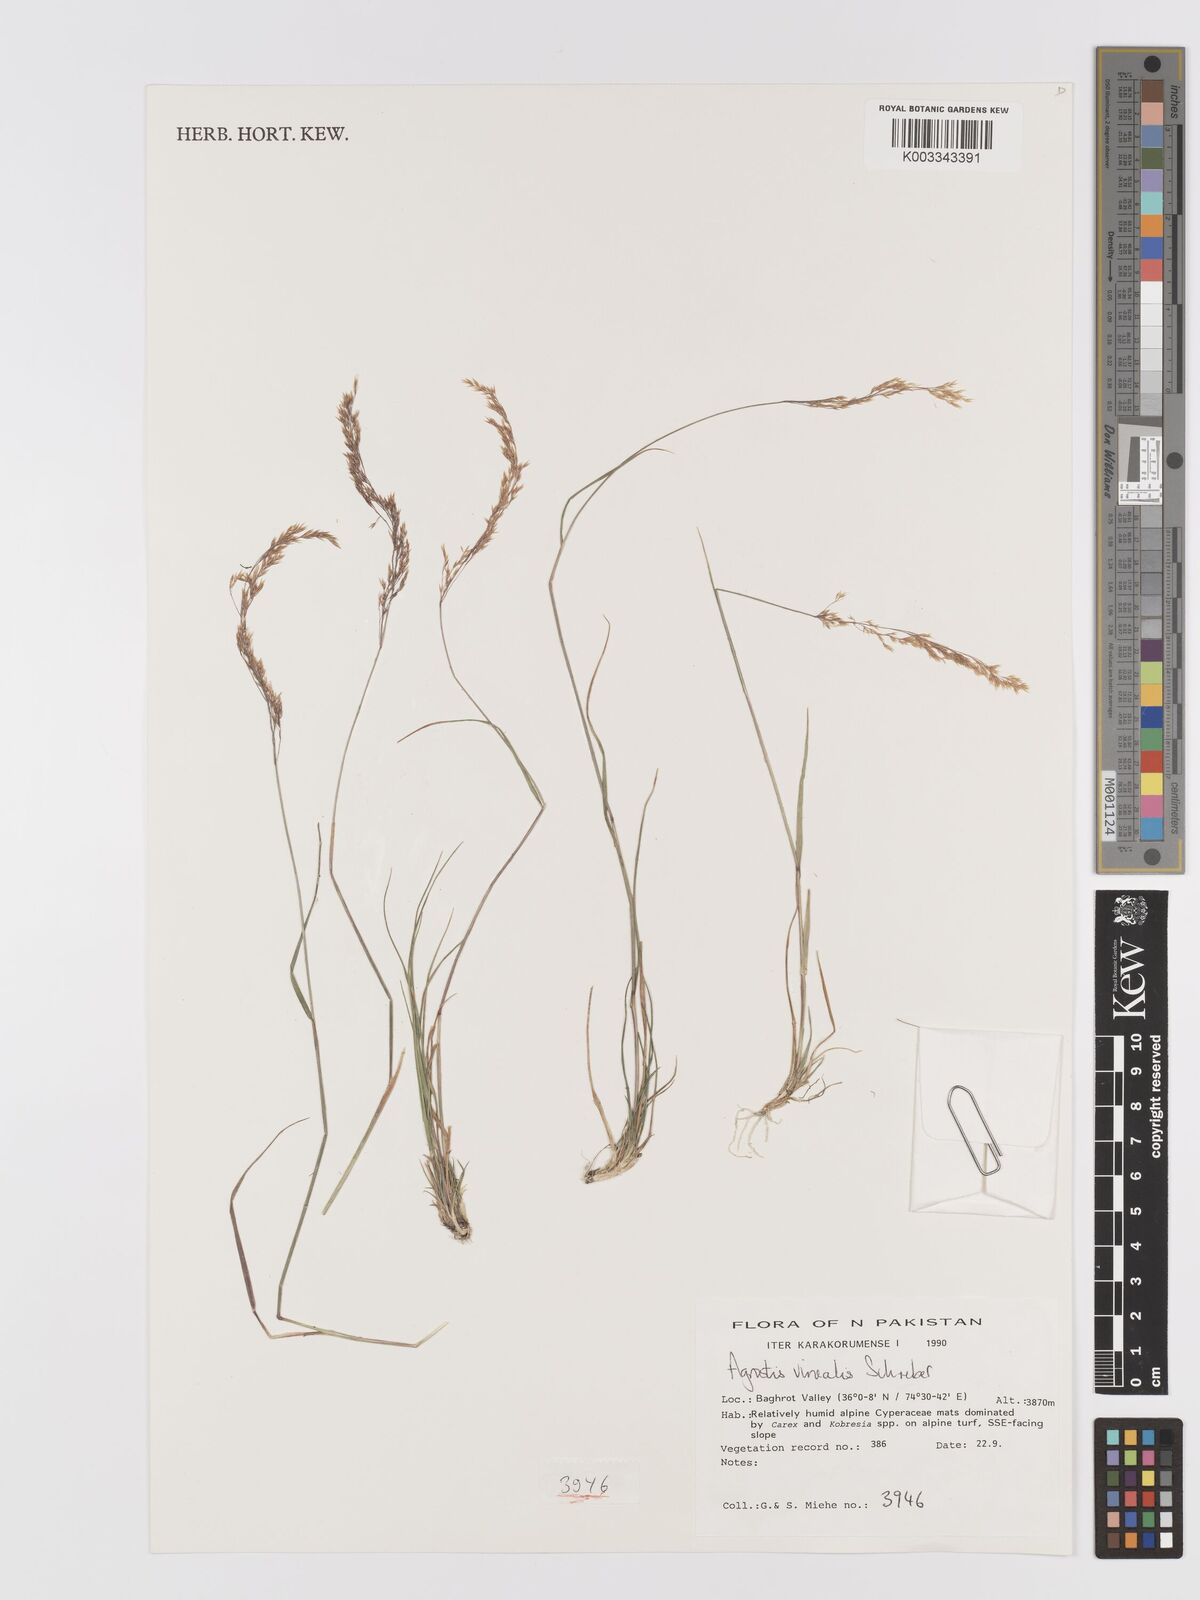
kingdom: Plantae
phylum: Tracheophyta
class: Liliopsida
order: Poales
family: Poaceae
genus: Agrostis
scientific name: Agrostis vinealis
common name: Brown bent
